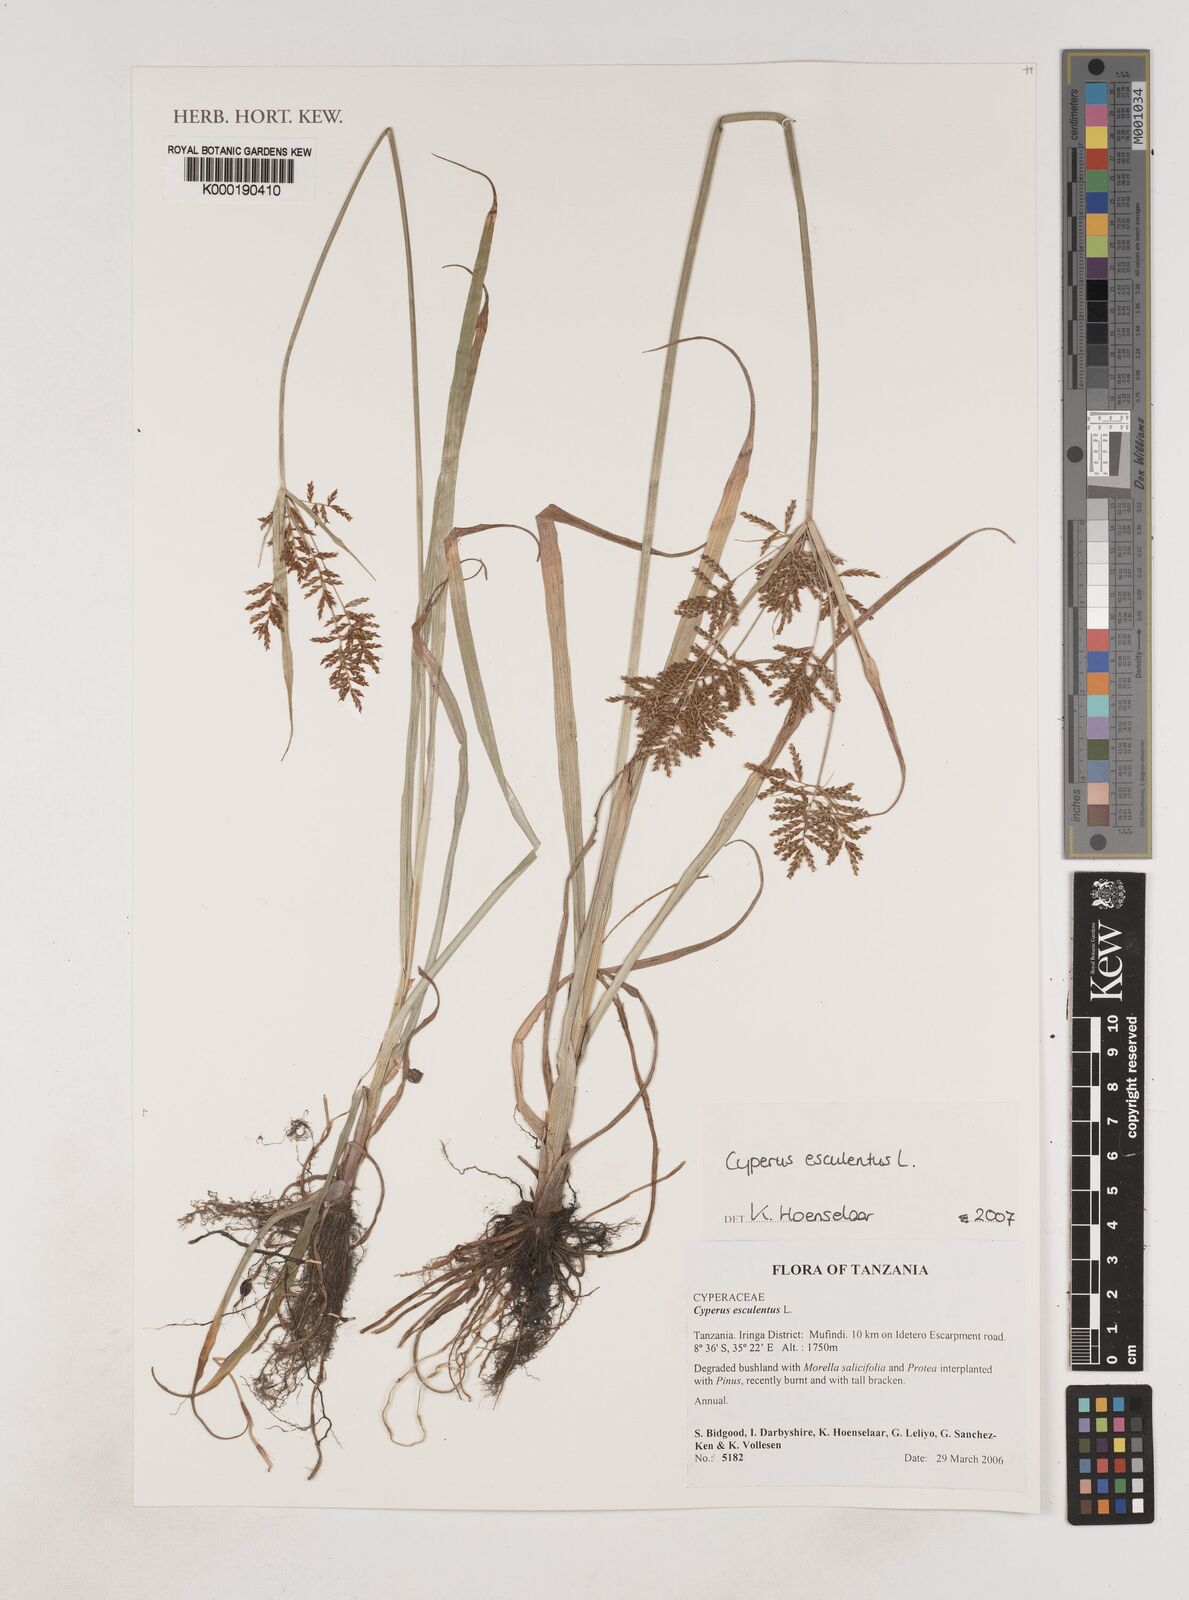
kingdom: Plantae
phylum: Tracheophyta
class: Liliopsida
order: Poales
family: Cyperaceae
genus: Cyperus
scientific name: Cyperus esculentus
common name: Yellow nutsedge
